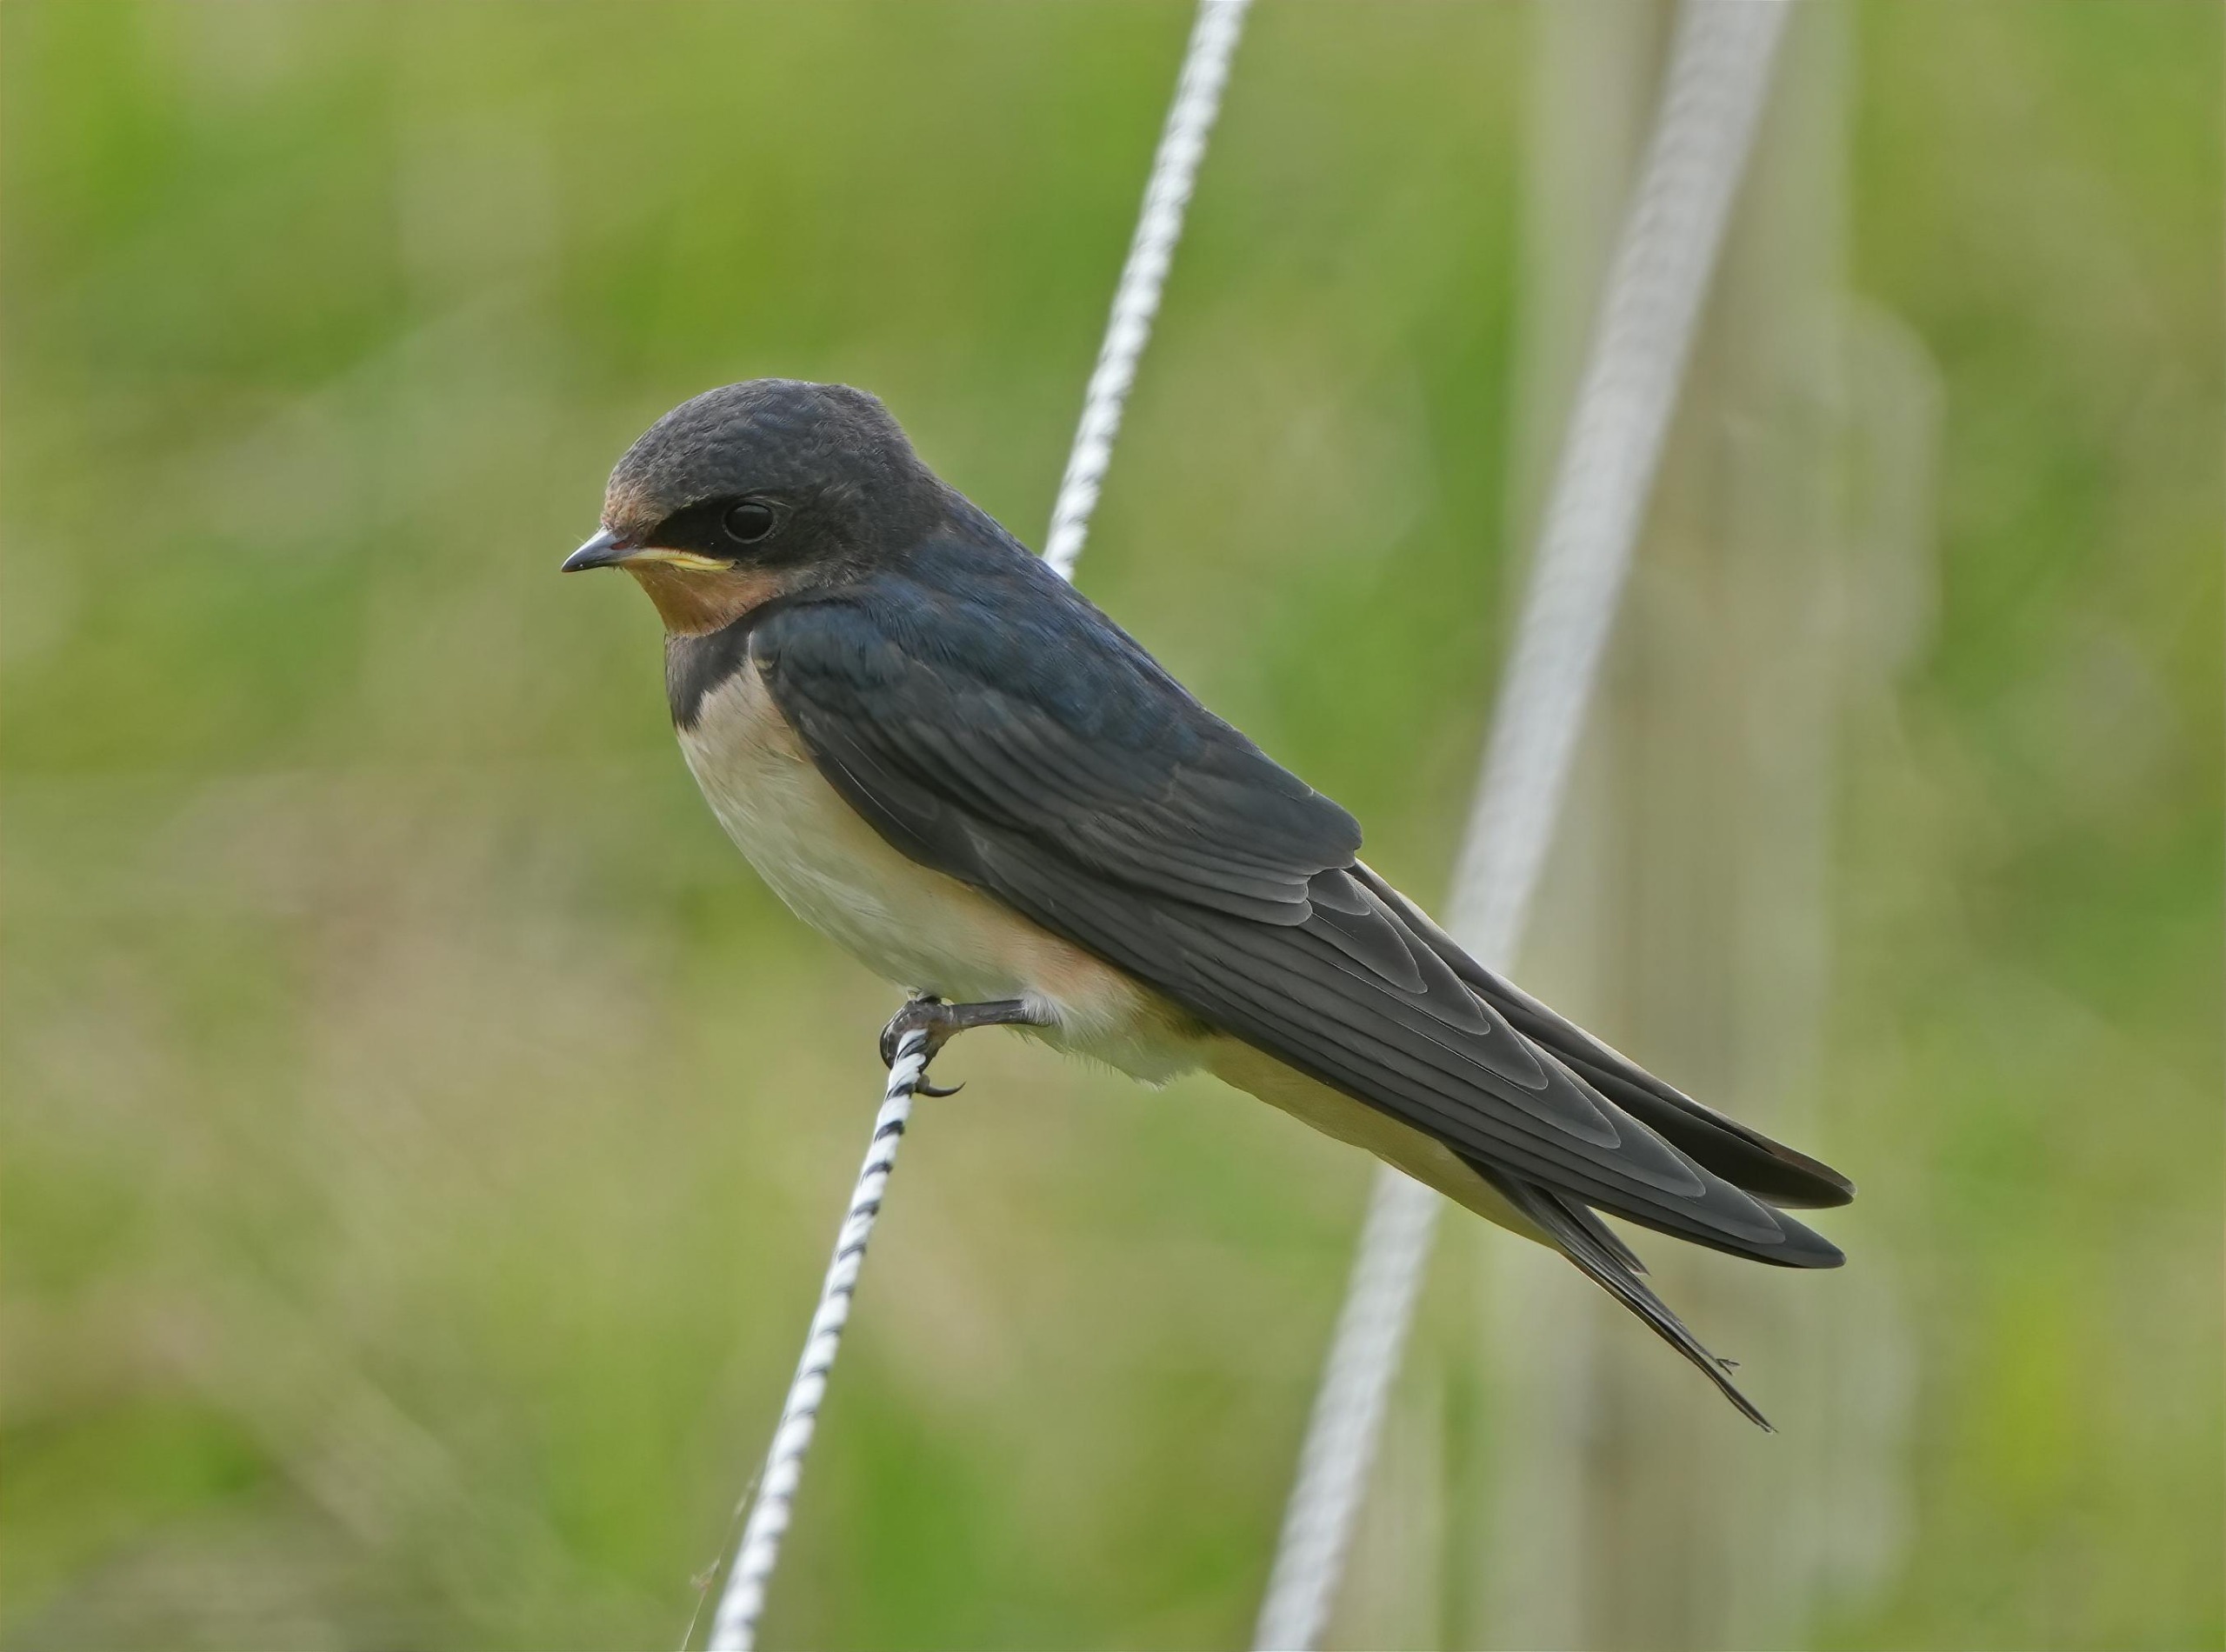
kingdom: Animalia
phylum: Chordata
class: Aves
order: Passeriformes
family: Hirundinidae
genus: Hirundo
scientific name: Hirundo rustica
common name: Landsvale
